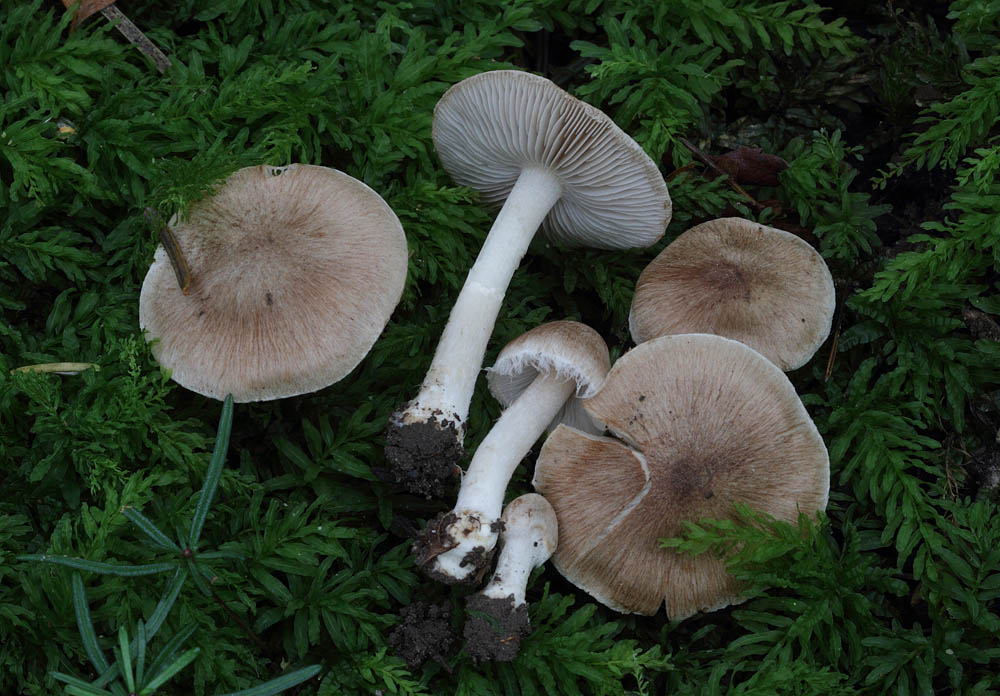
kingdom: Fungi
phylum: Basidiomycota
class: Agaricomycetes
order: Agaricales
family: Inocybaceae
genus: Inocybe
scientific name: Inocybe sindonia
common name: bleg trævlhat
